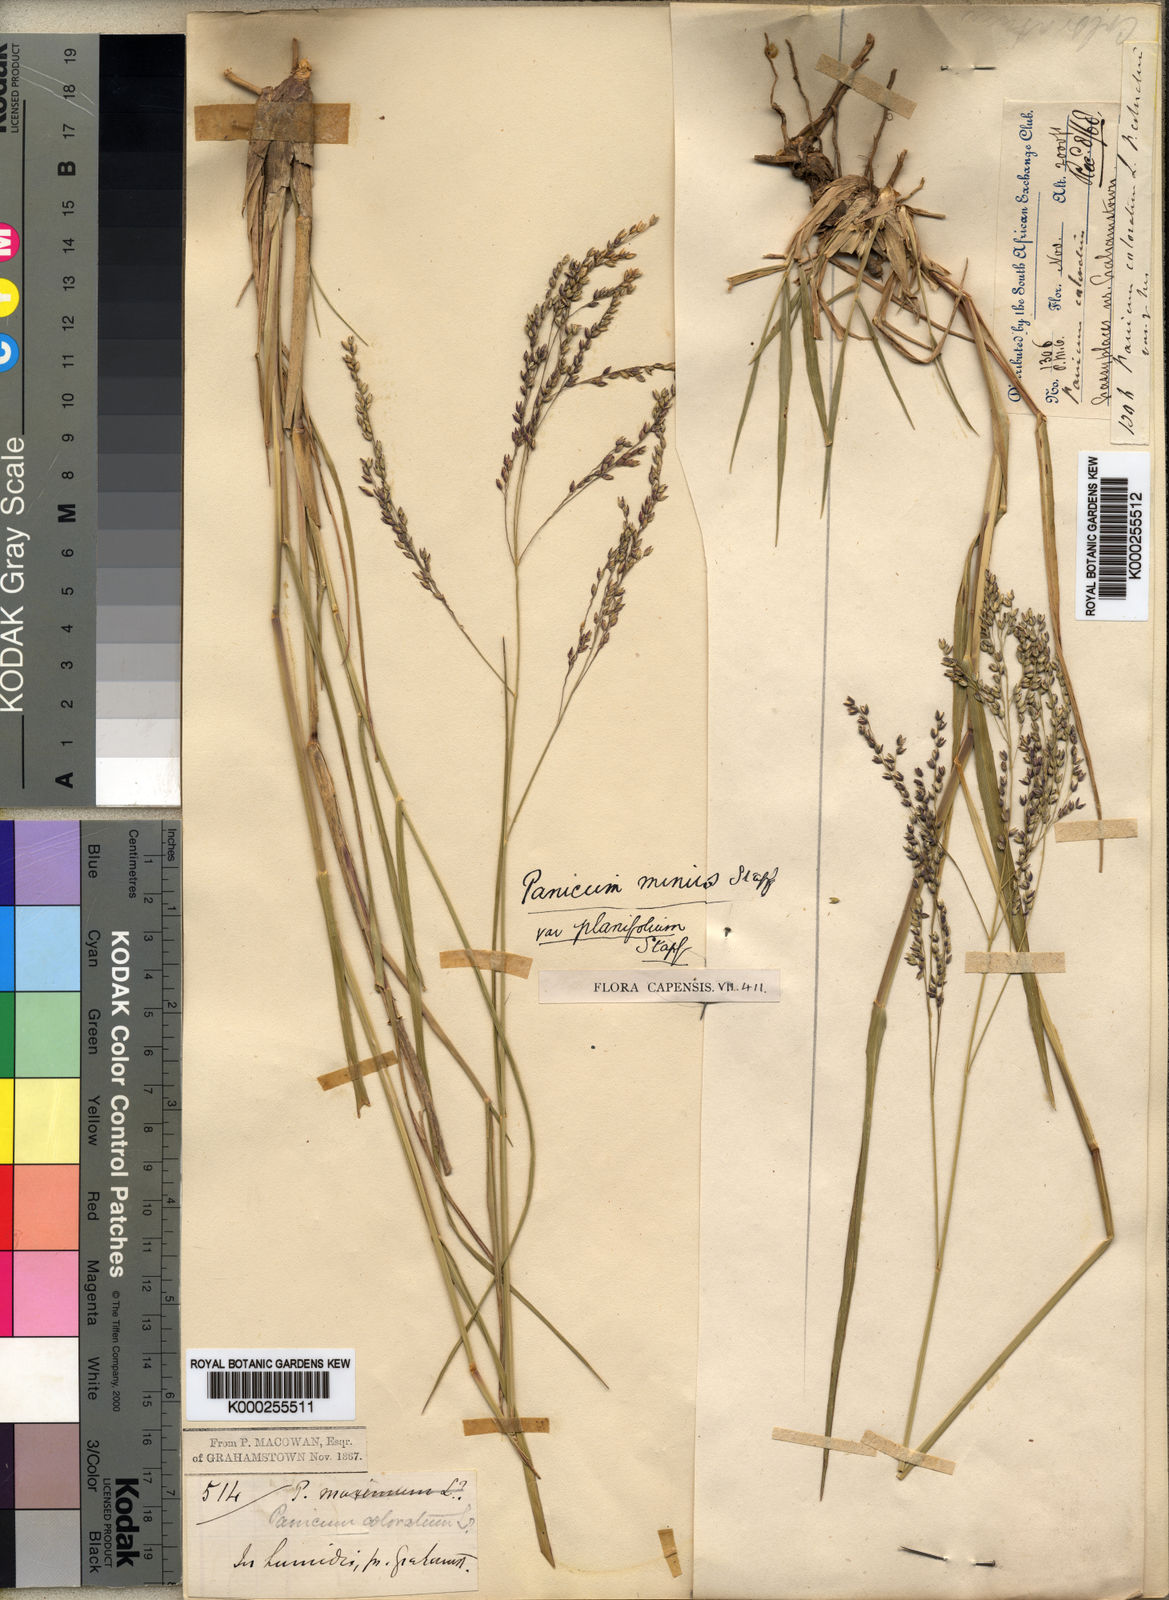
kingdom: Plantae
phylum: Tracheophyta
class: Liliopsida
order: Poales
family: Poaceae
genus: Panicum
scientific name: Panicum stapfianum
